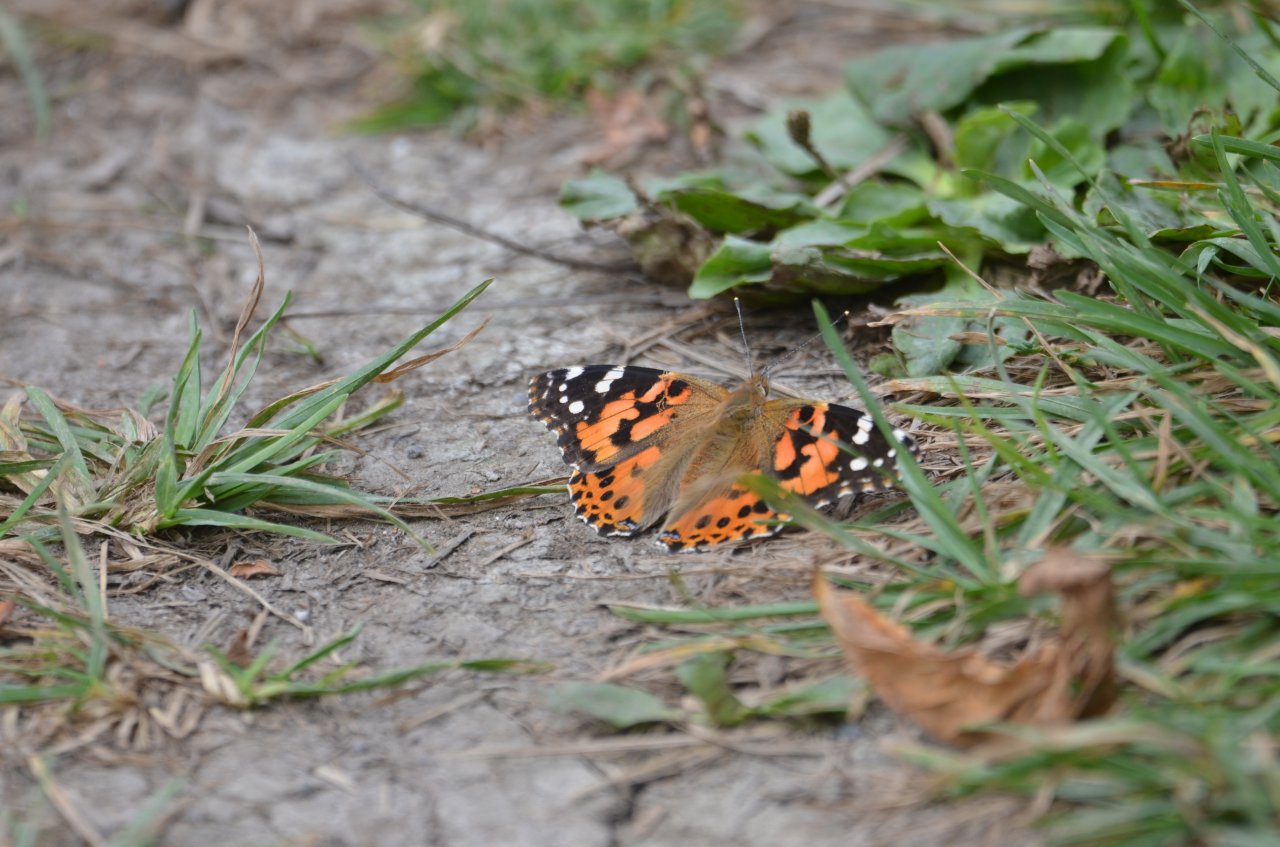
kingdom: Animalia
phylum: Arthropoda
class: Insecta
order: Lepidoptera
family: Nymphalidae
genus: Vanessa
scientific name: Vanessa cardui
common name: Painted Lady
